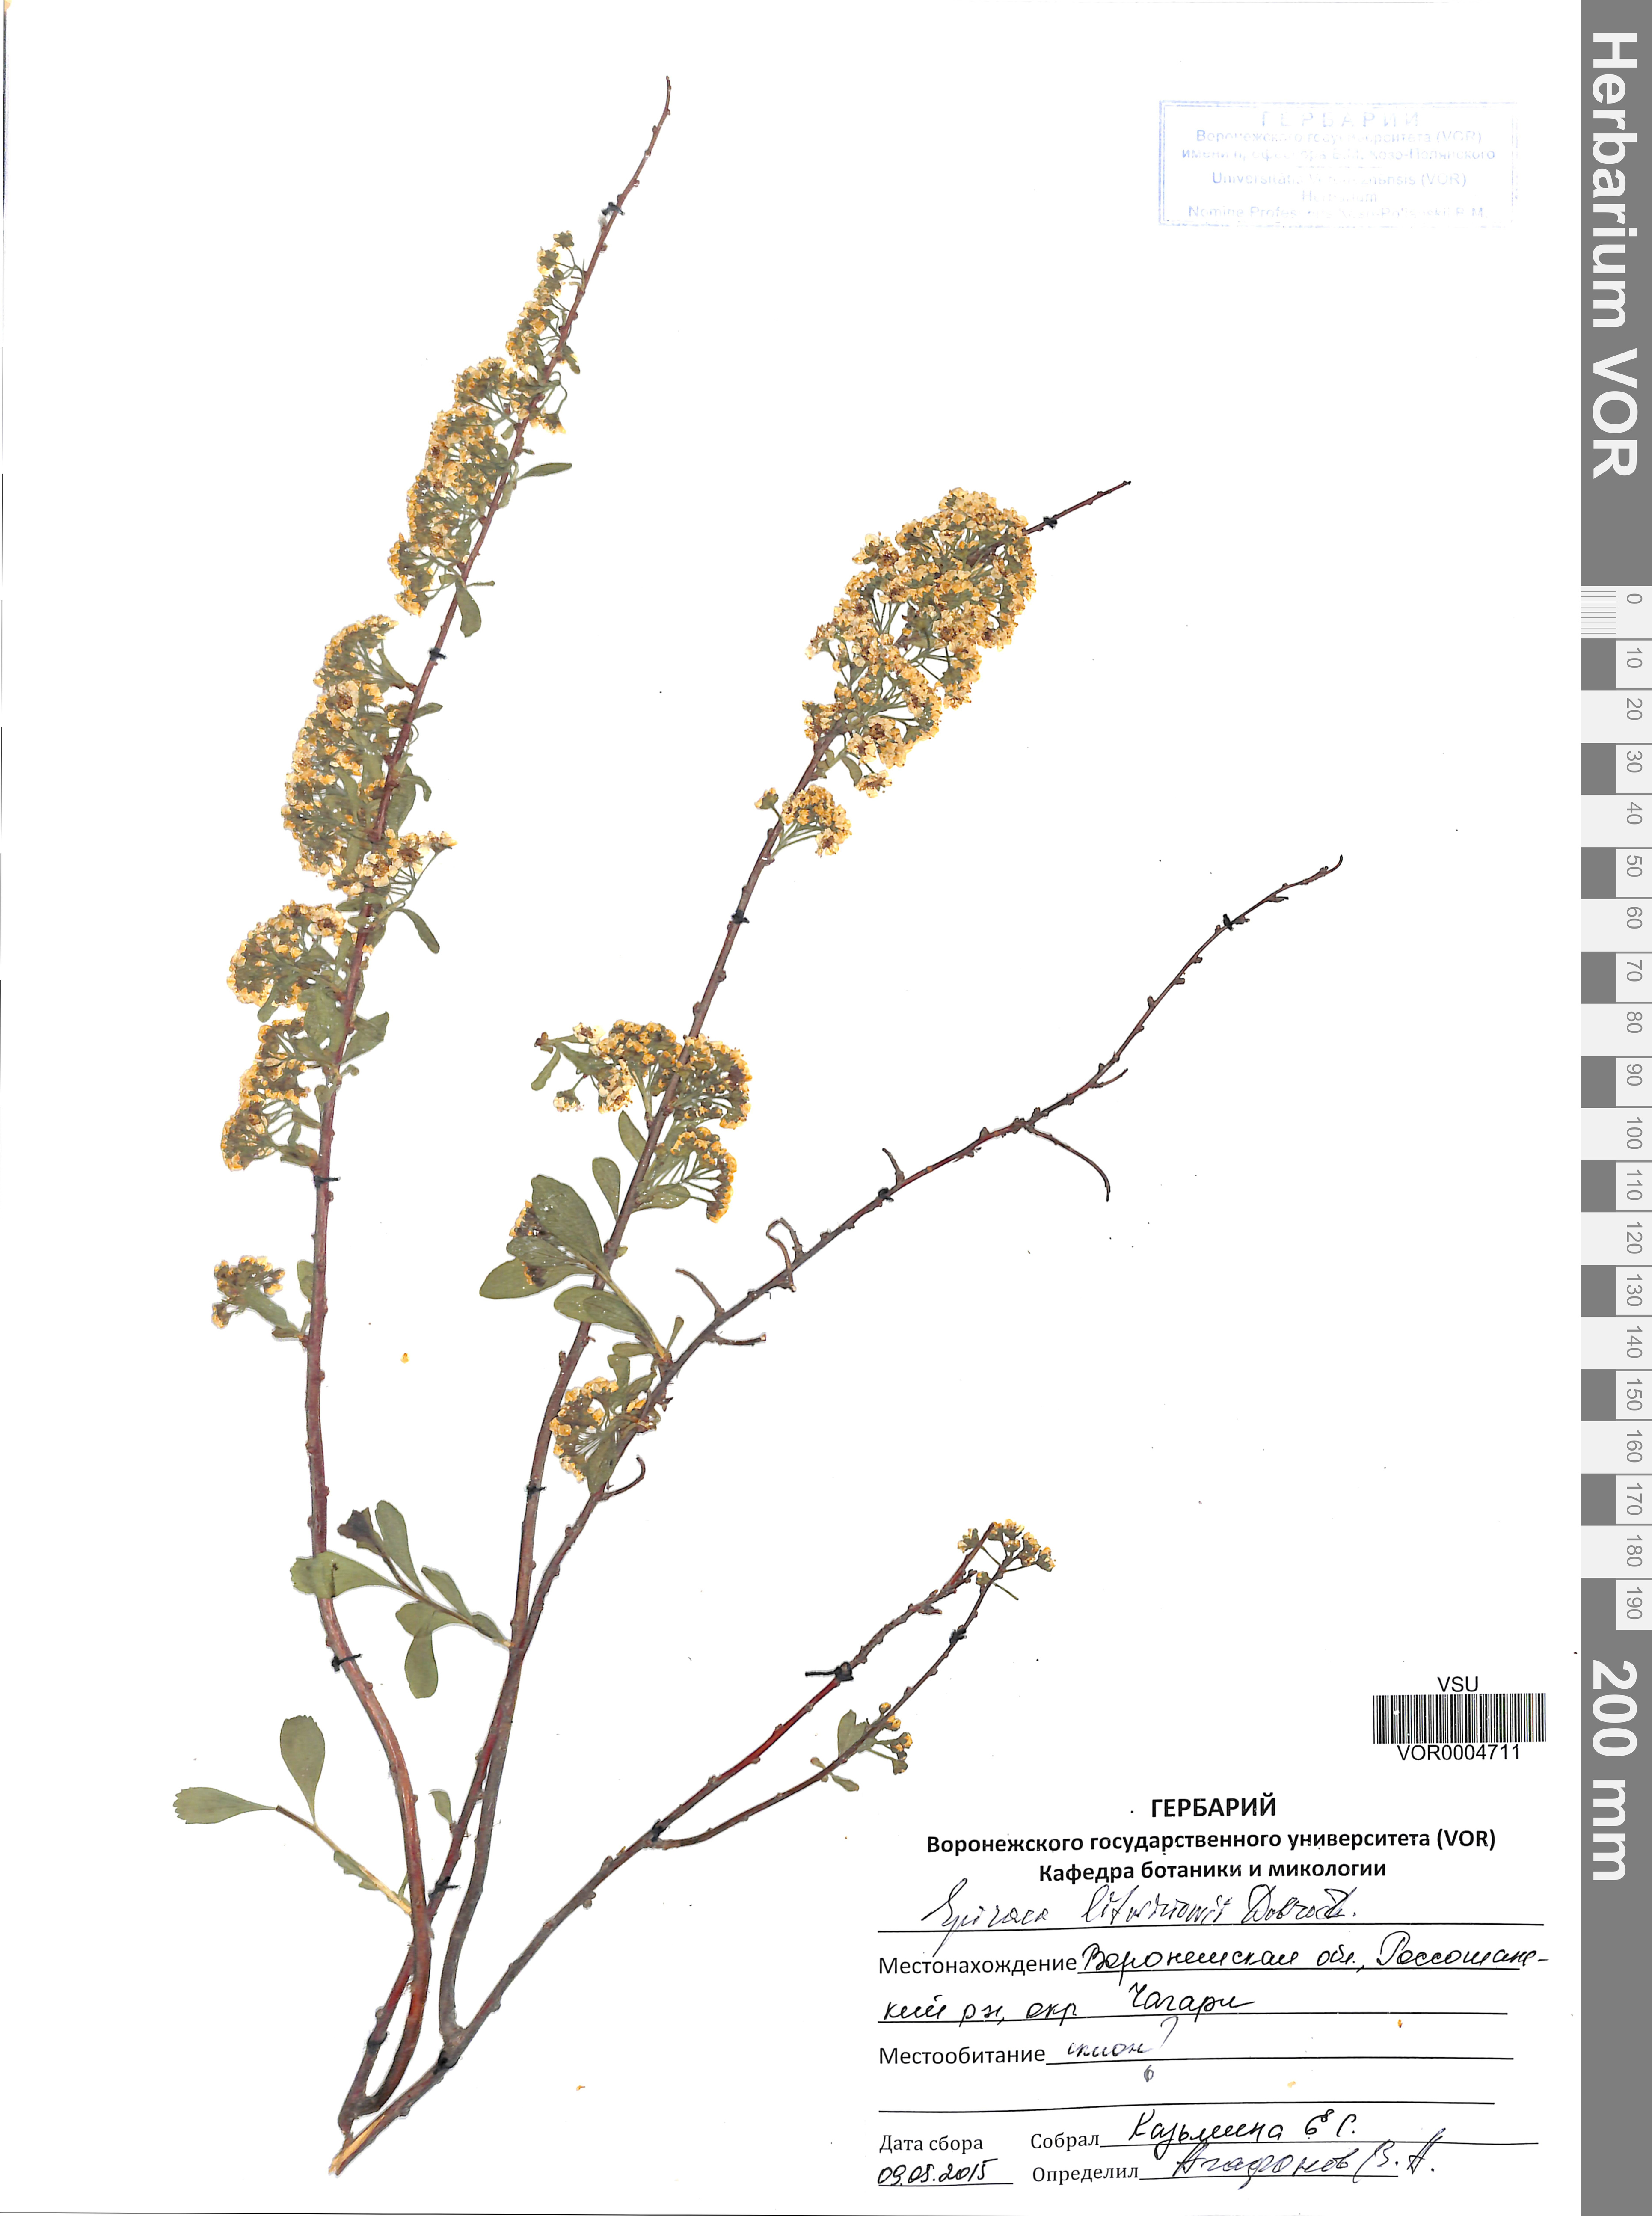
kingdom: Plantae
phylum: Tracheophyta
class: Magnoliopsida
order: Rosales
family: Rosaceae
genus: Spiraea
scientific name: Spiraea crenata
